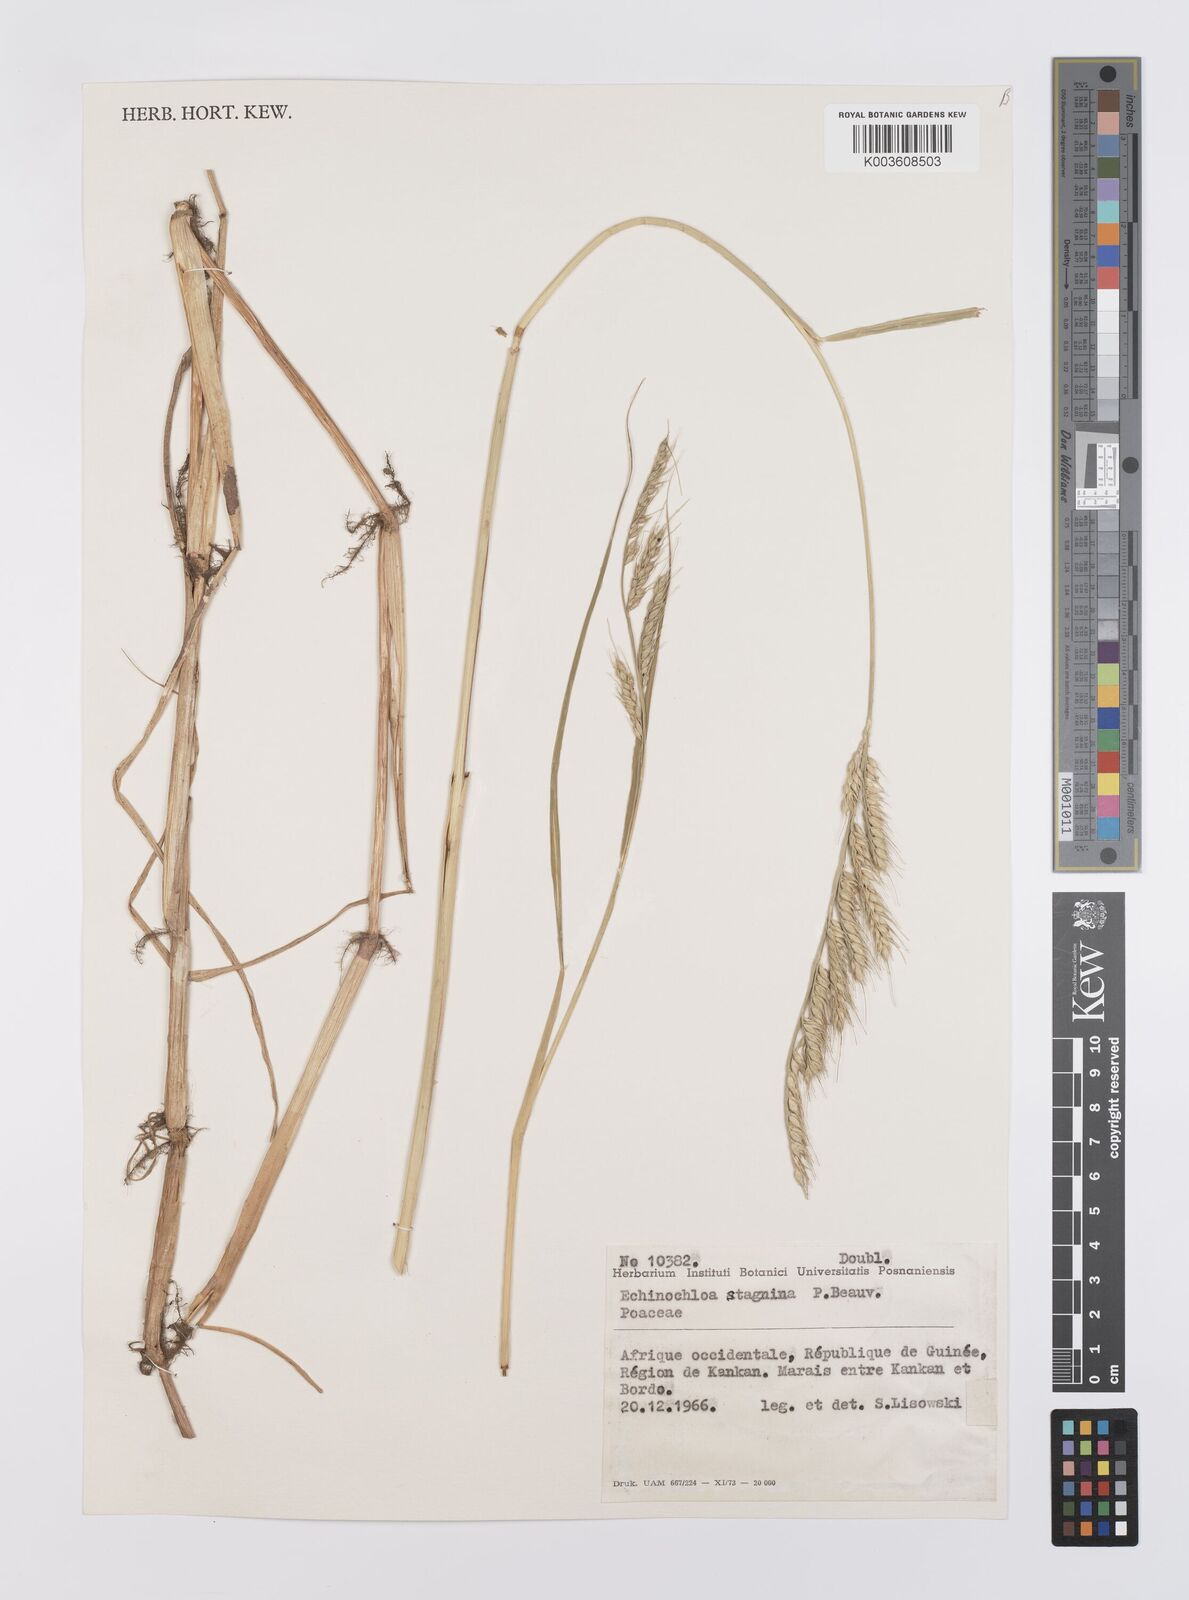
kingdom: Plantae
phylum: Tracheophyta
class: Liliopsida
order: Poales
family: Poaceae
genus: Echinochloa
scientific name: Echinochloa stagnina
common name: Burgu grass
